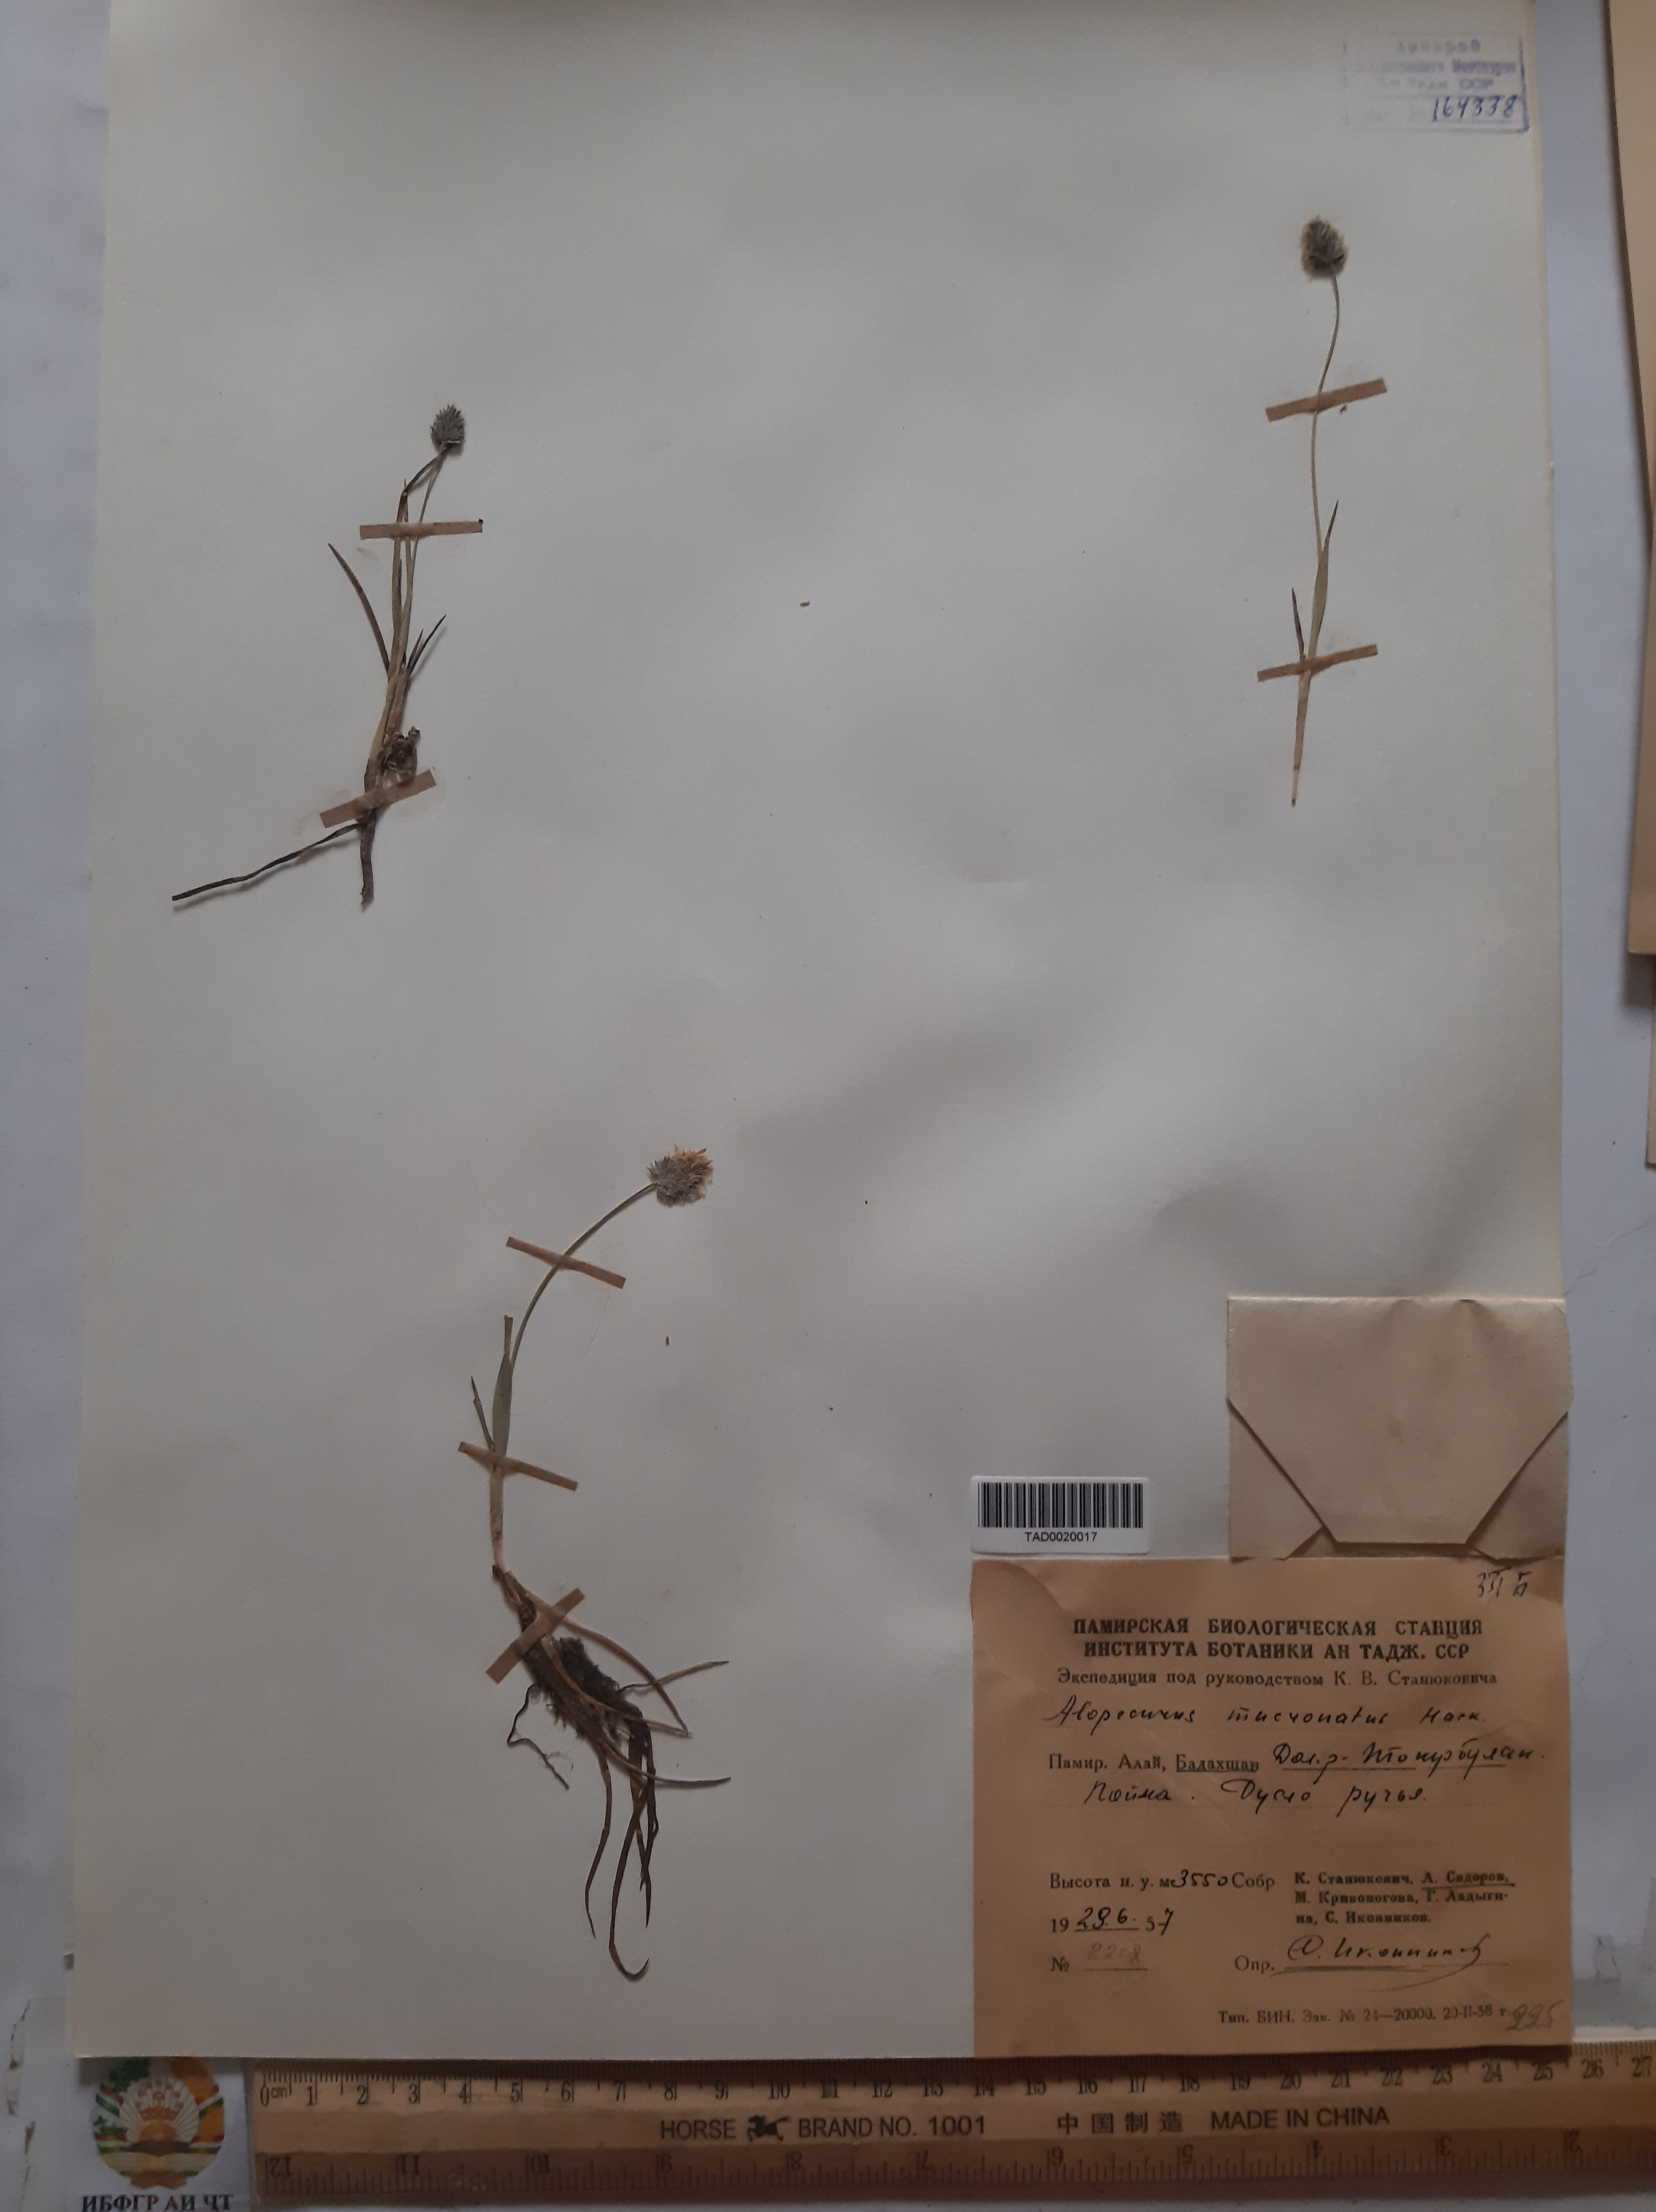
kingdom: Plantae
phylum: Tracheophyta
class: Liliopsida
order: Poales
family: Poaceae
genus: Alopecurus
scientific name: Alopecurus mucronatus
